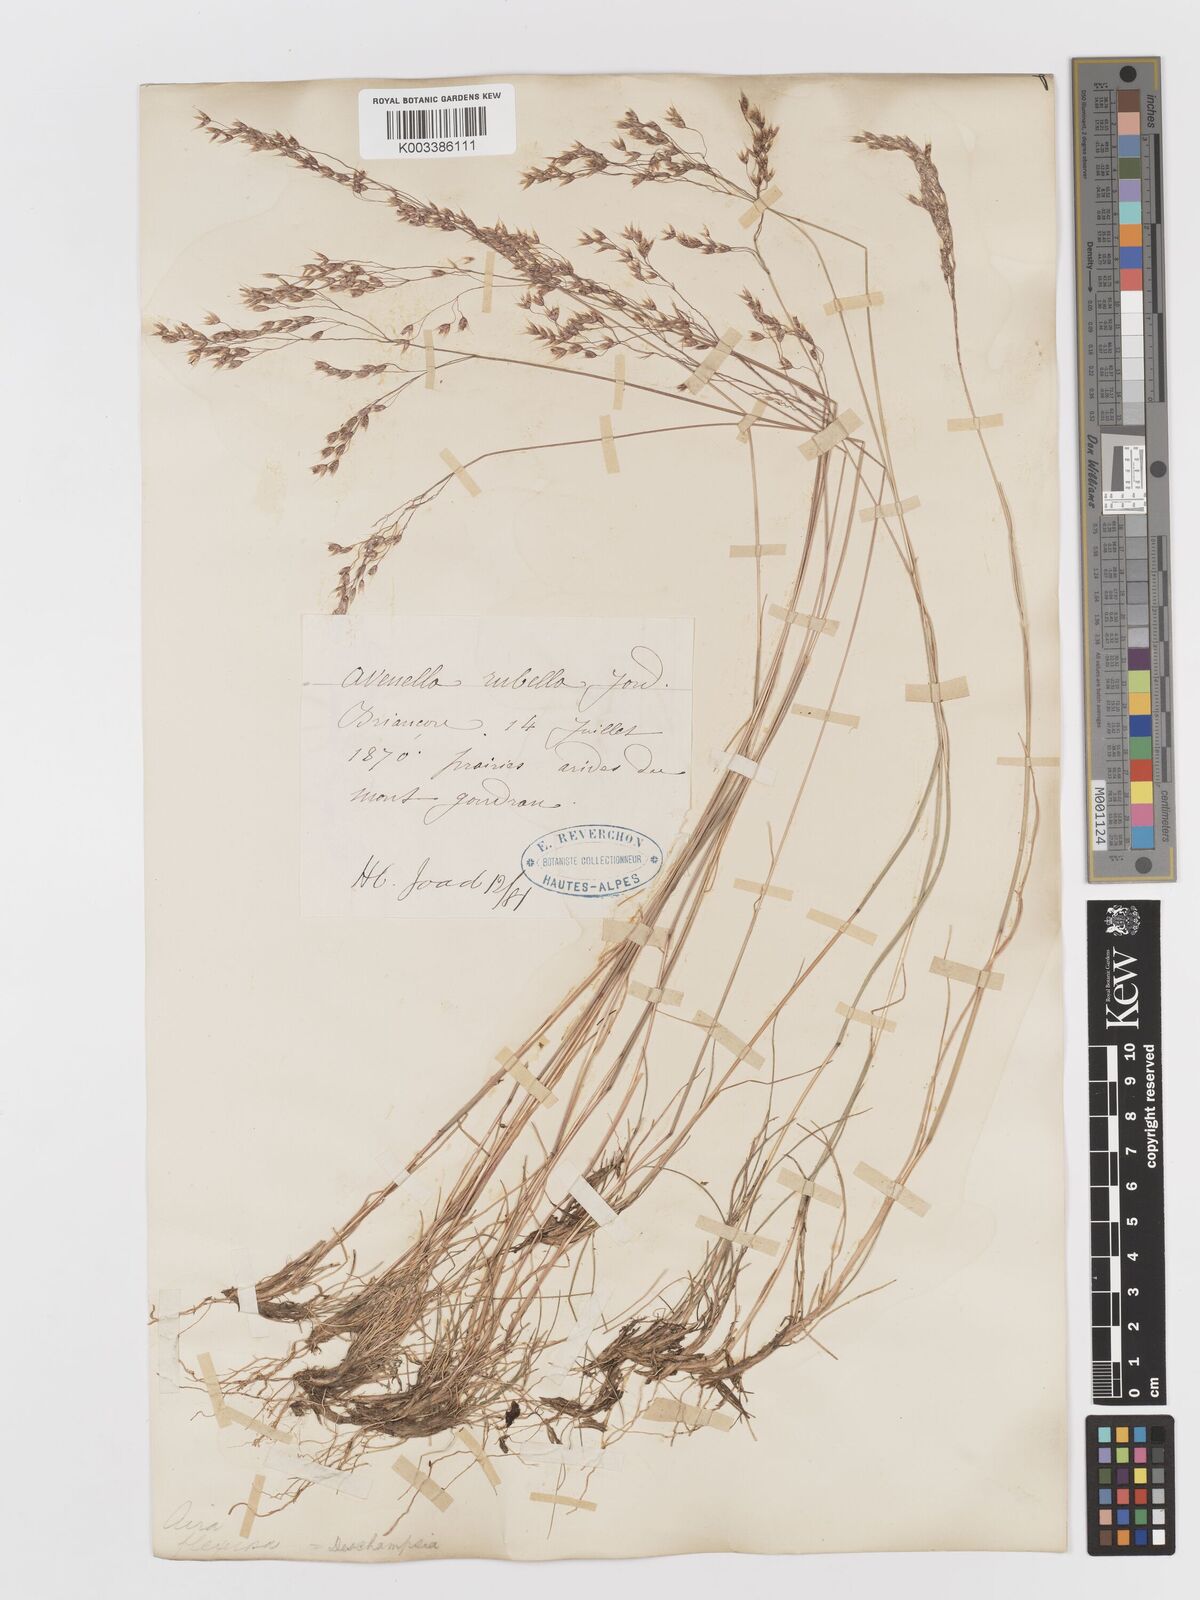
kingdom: Plantae
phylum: Tracheophyta
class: Liliopsida
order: Poales
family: Poaceae
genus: Avenella
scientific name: Avenella flexuosa
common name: Wavy hairgrass
